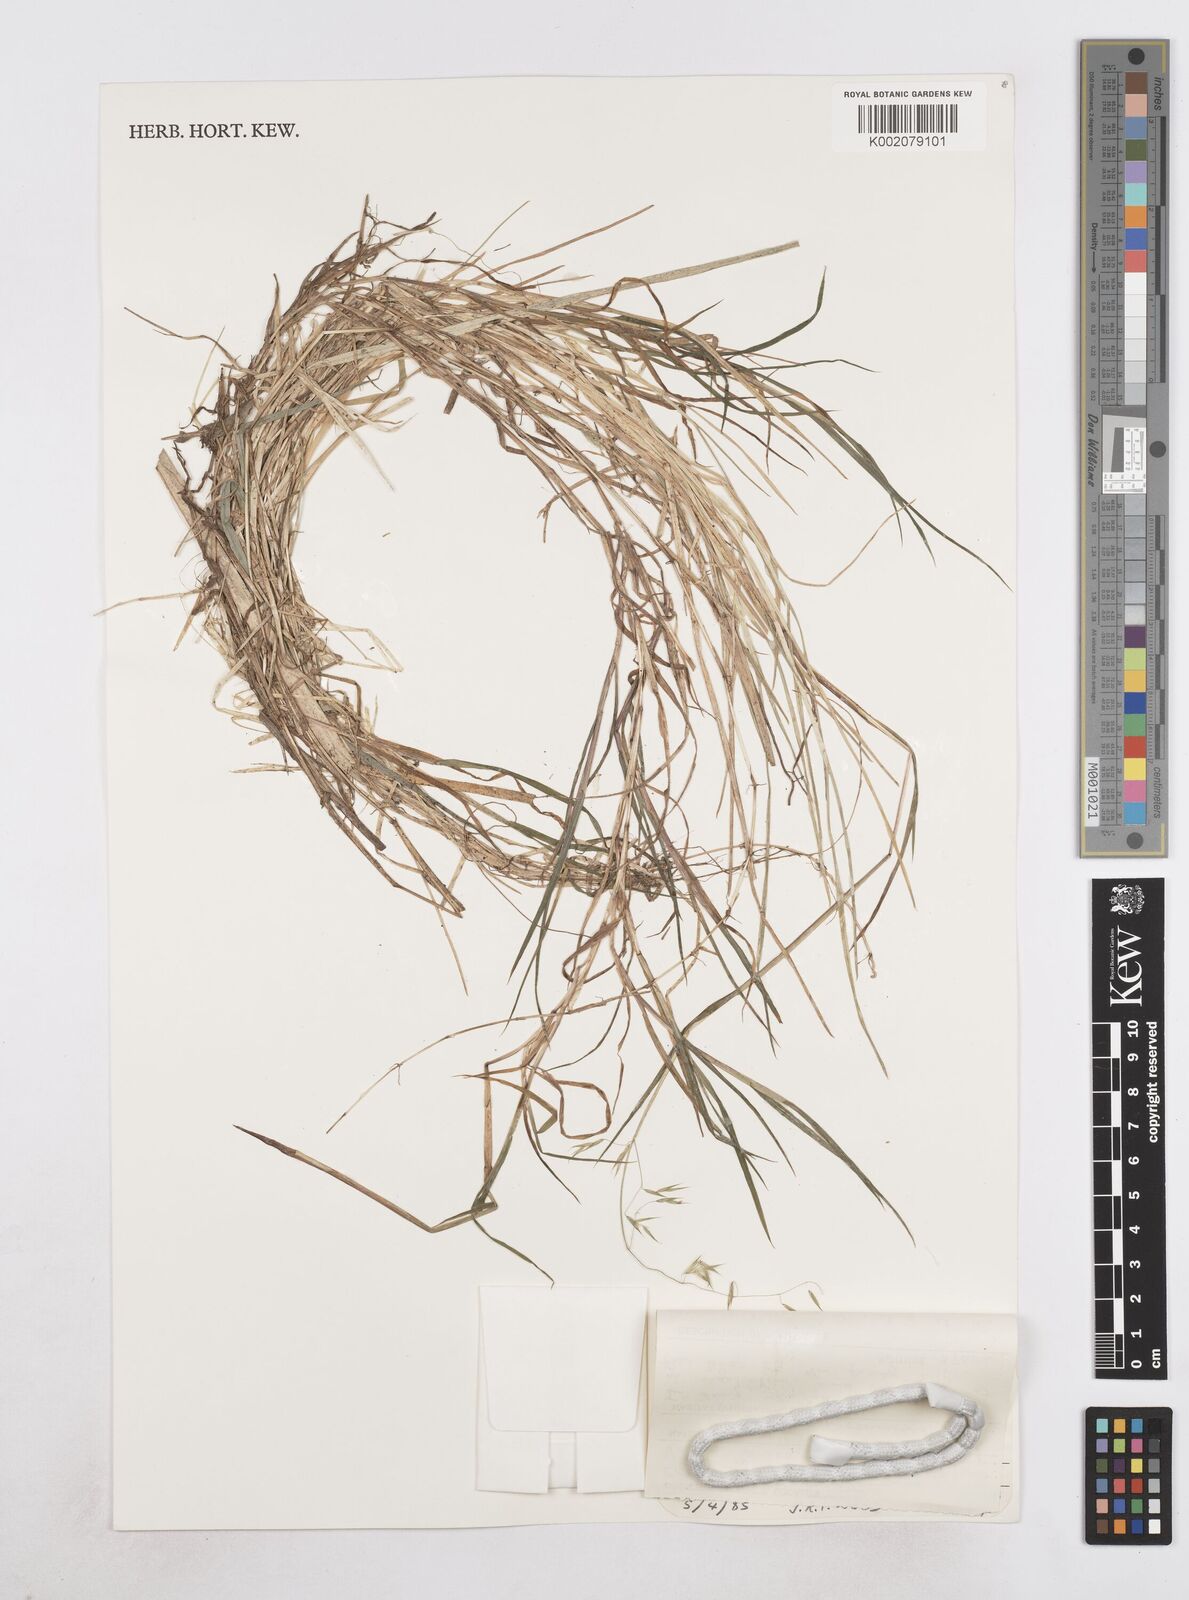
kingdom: Plantae
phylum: Tracheophyta
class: Liliopsida
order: Poales
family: Poaceae
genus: Poa
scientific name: Poa hitchcockiana
